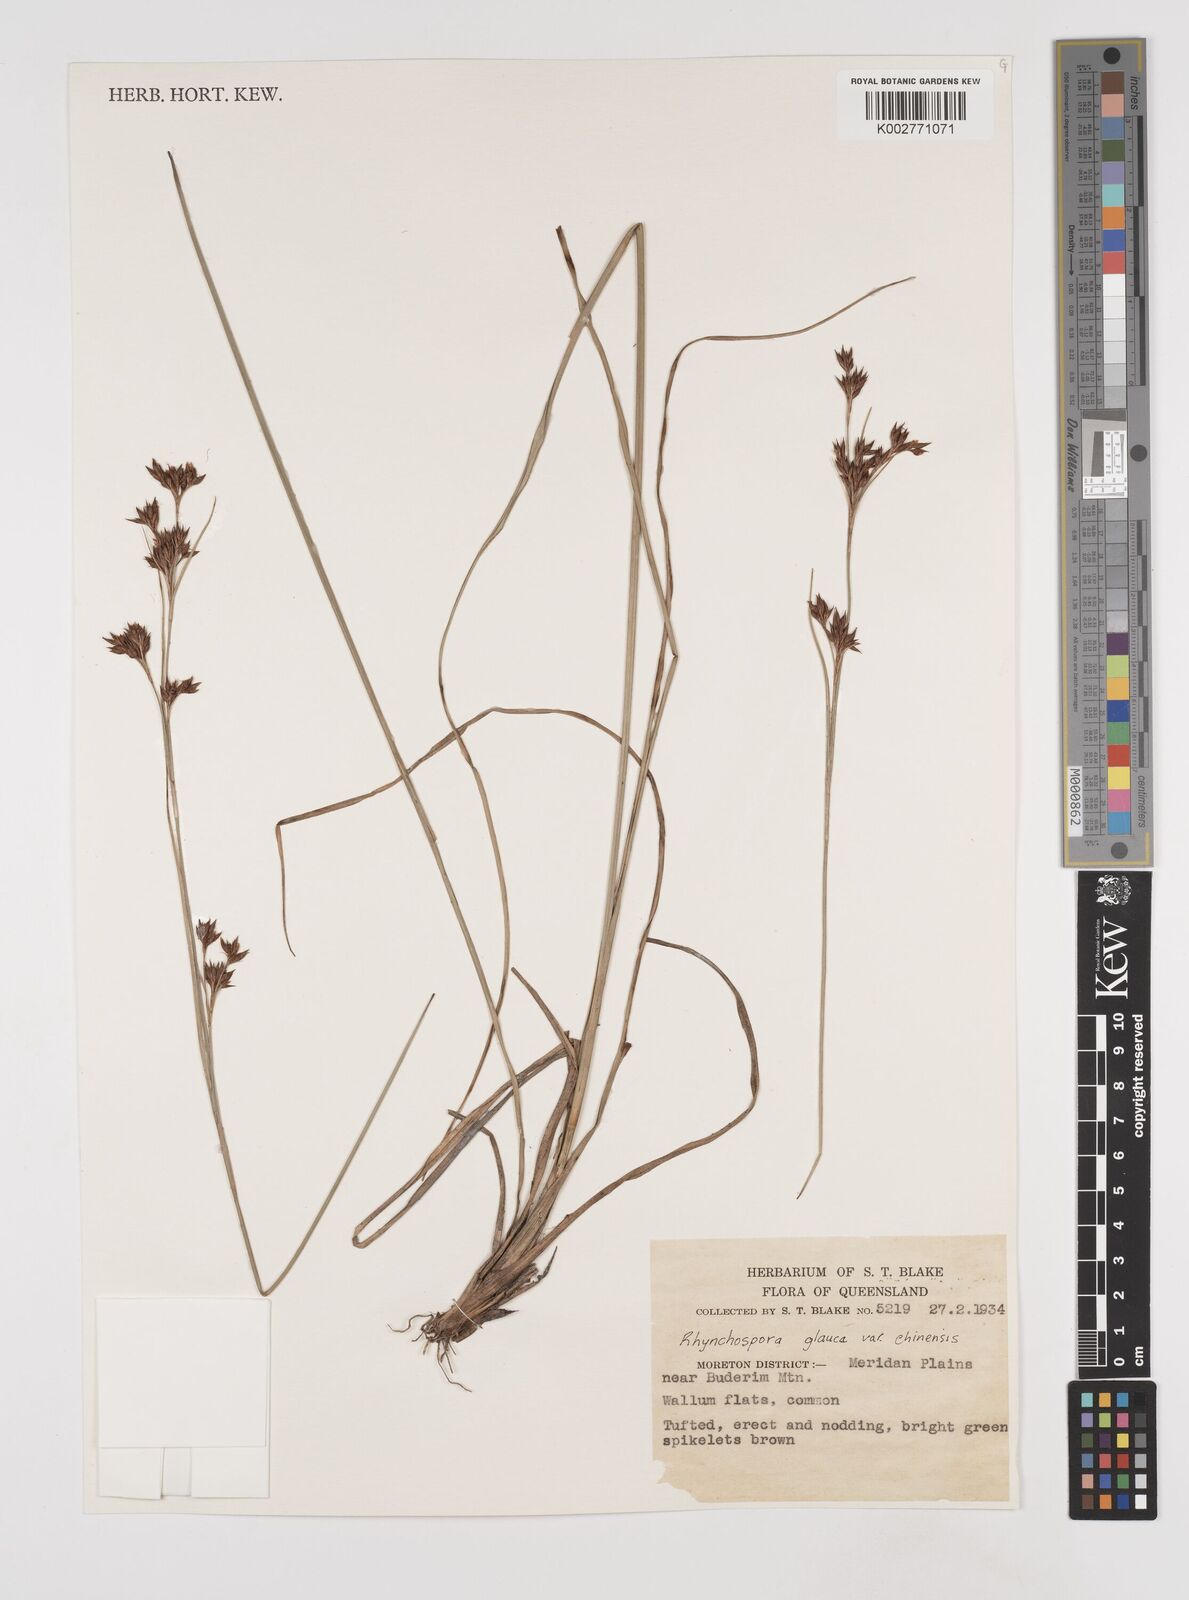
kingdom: Plantae
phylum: Tracheophyta
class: Liliopsida
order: Poales
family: Cyperaceae
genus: Rhynchospora
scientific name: Rhynchospora rugosa
